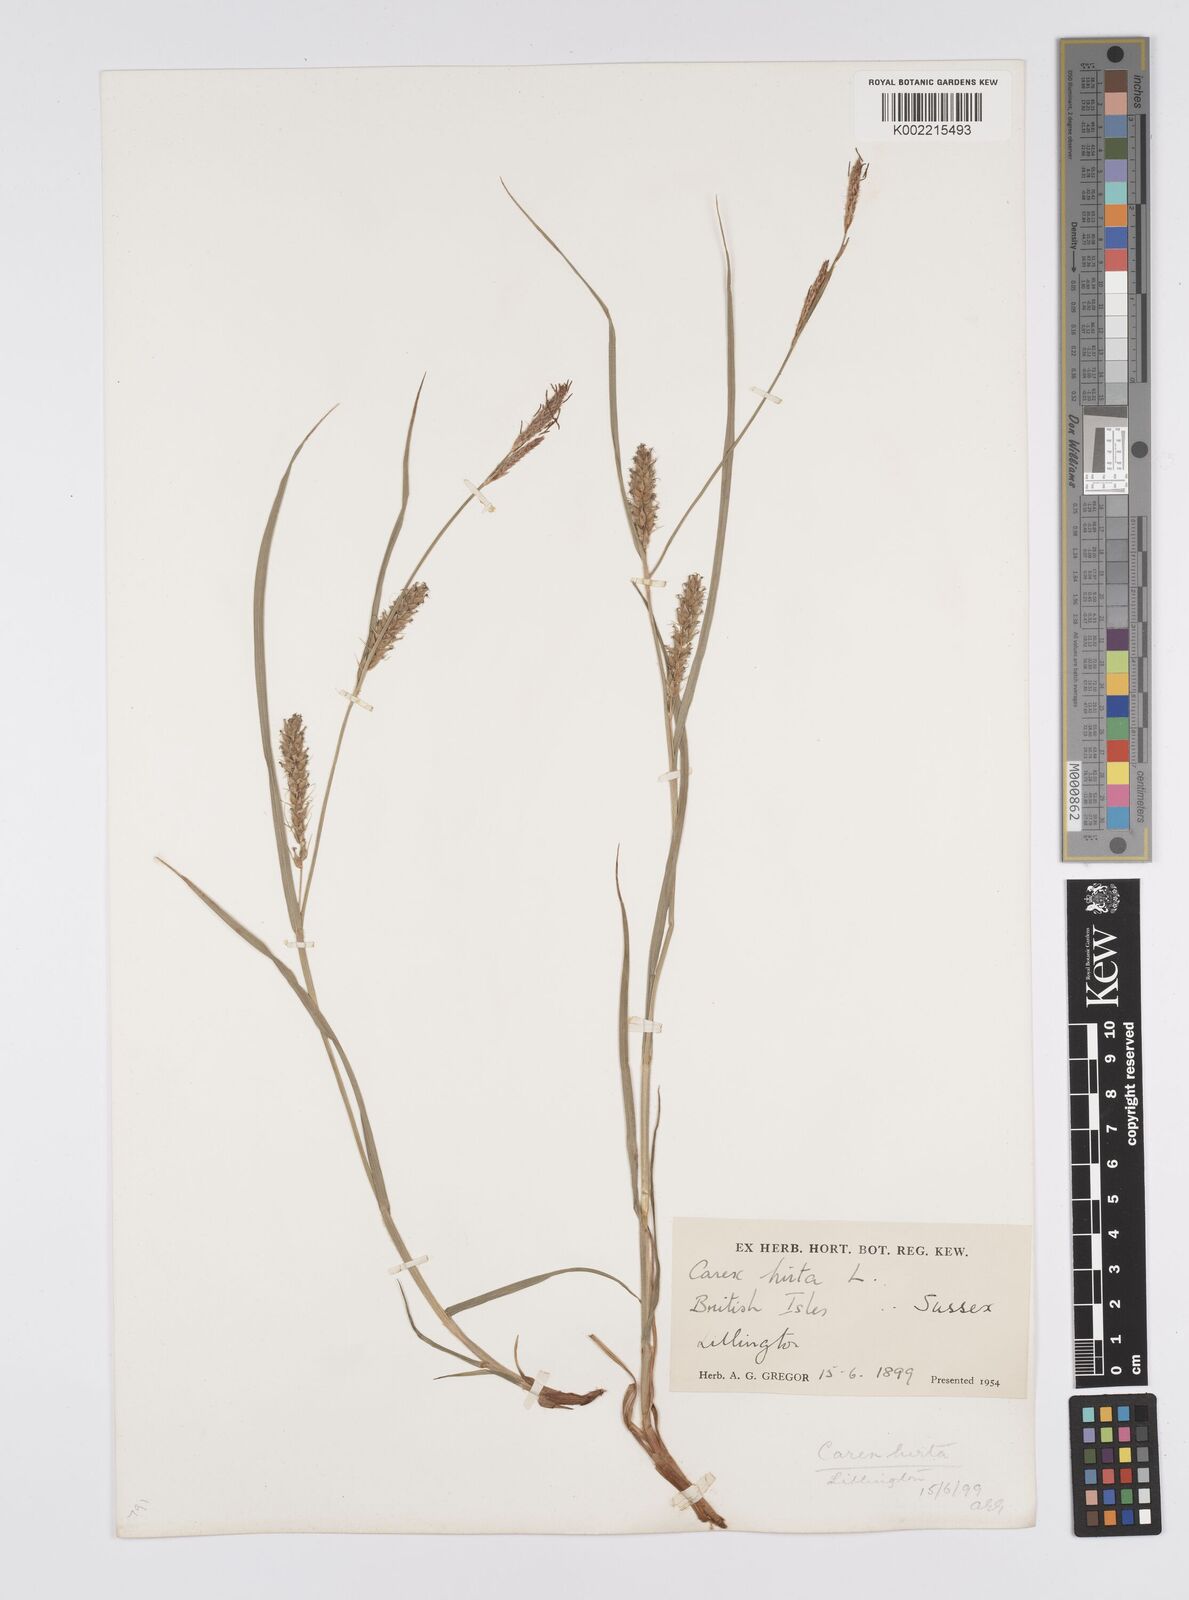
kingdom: Plantae
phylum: Tracheophyta
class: Liliopsida
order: Poales
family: Cyperaceae
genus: Carex
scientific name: Carex hirta
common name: Hairy sedge
